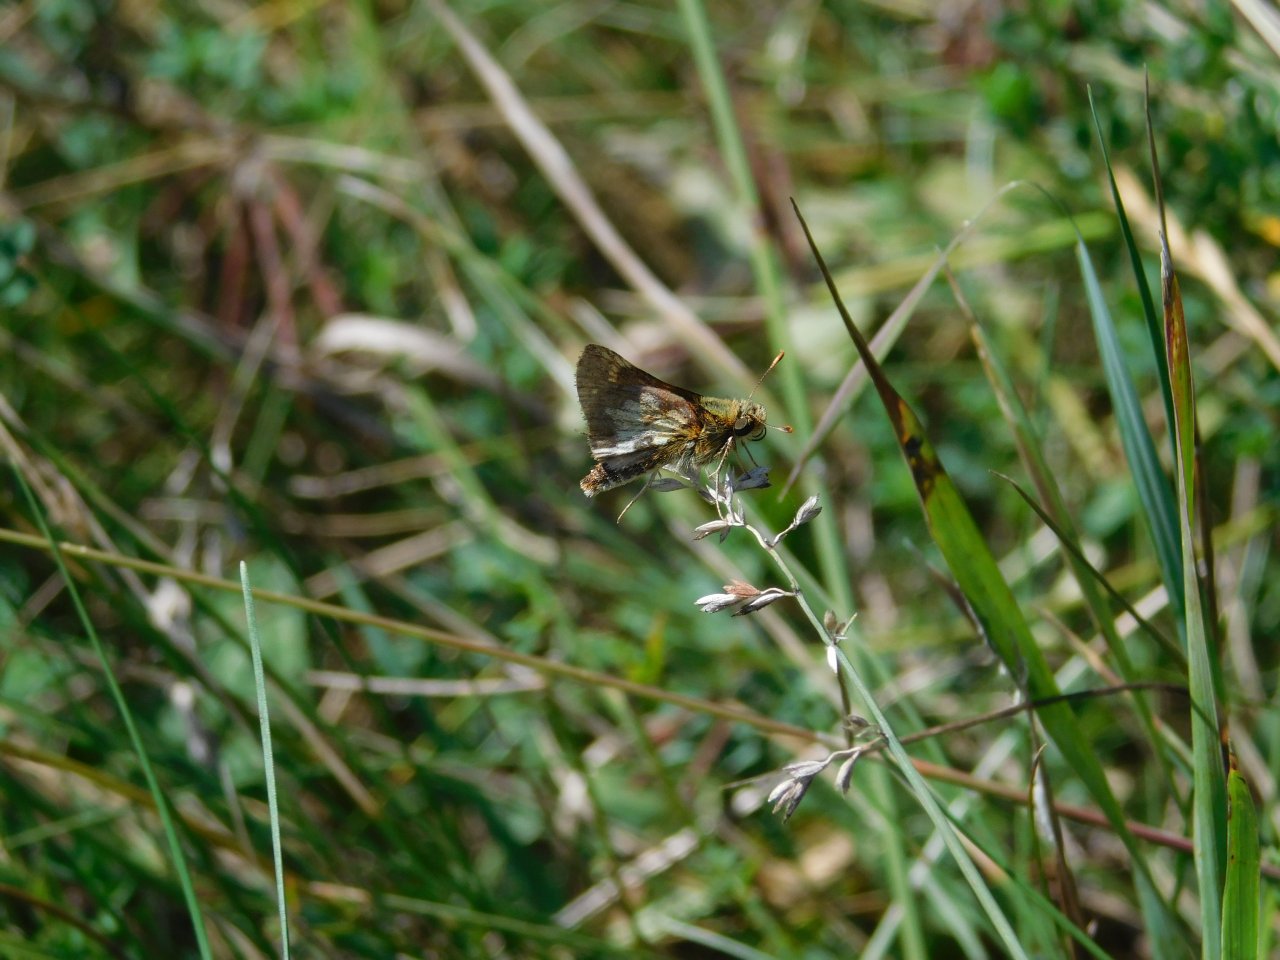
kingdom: Animalia
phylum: Arthropoda
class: Insecta
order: Lepidoptera
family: Hesperiidae
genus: Polites
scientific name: Polites coras
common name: Peck's Skipper
